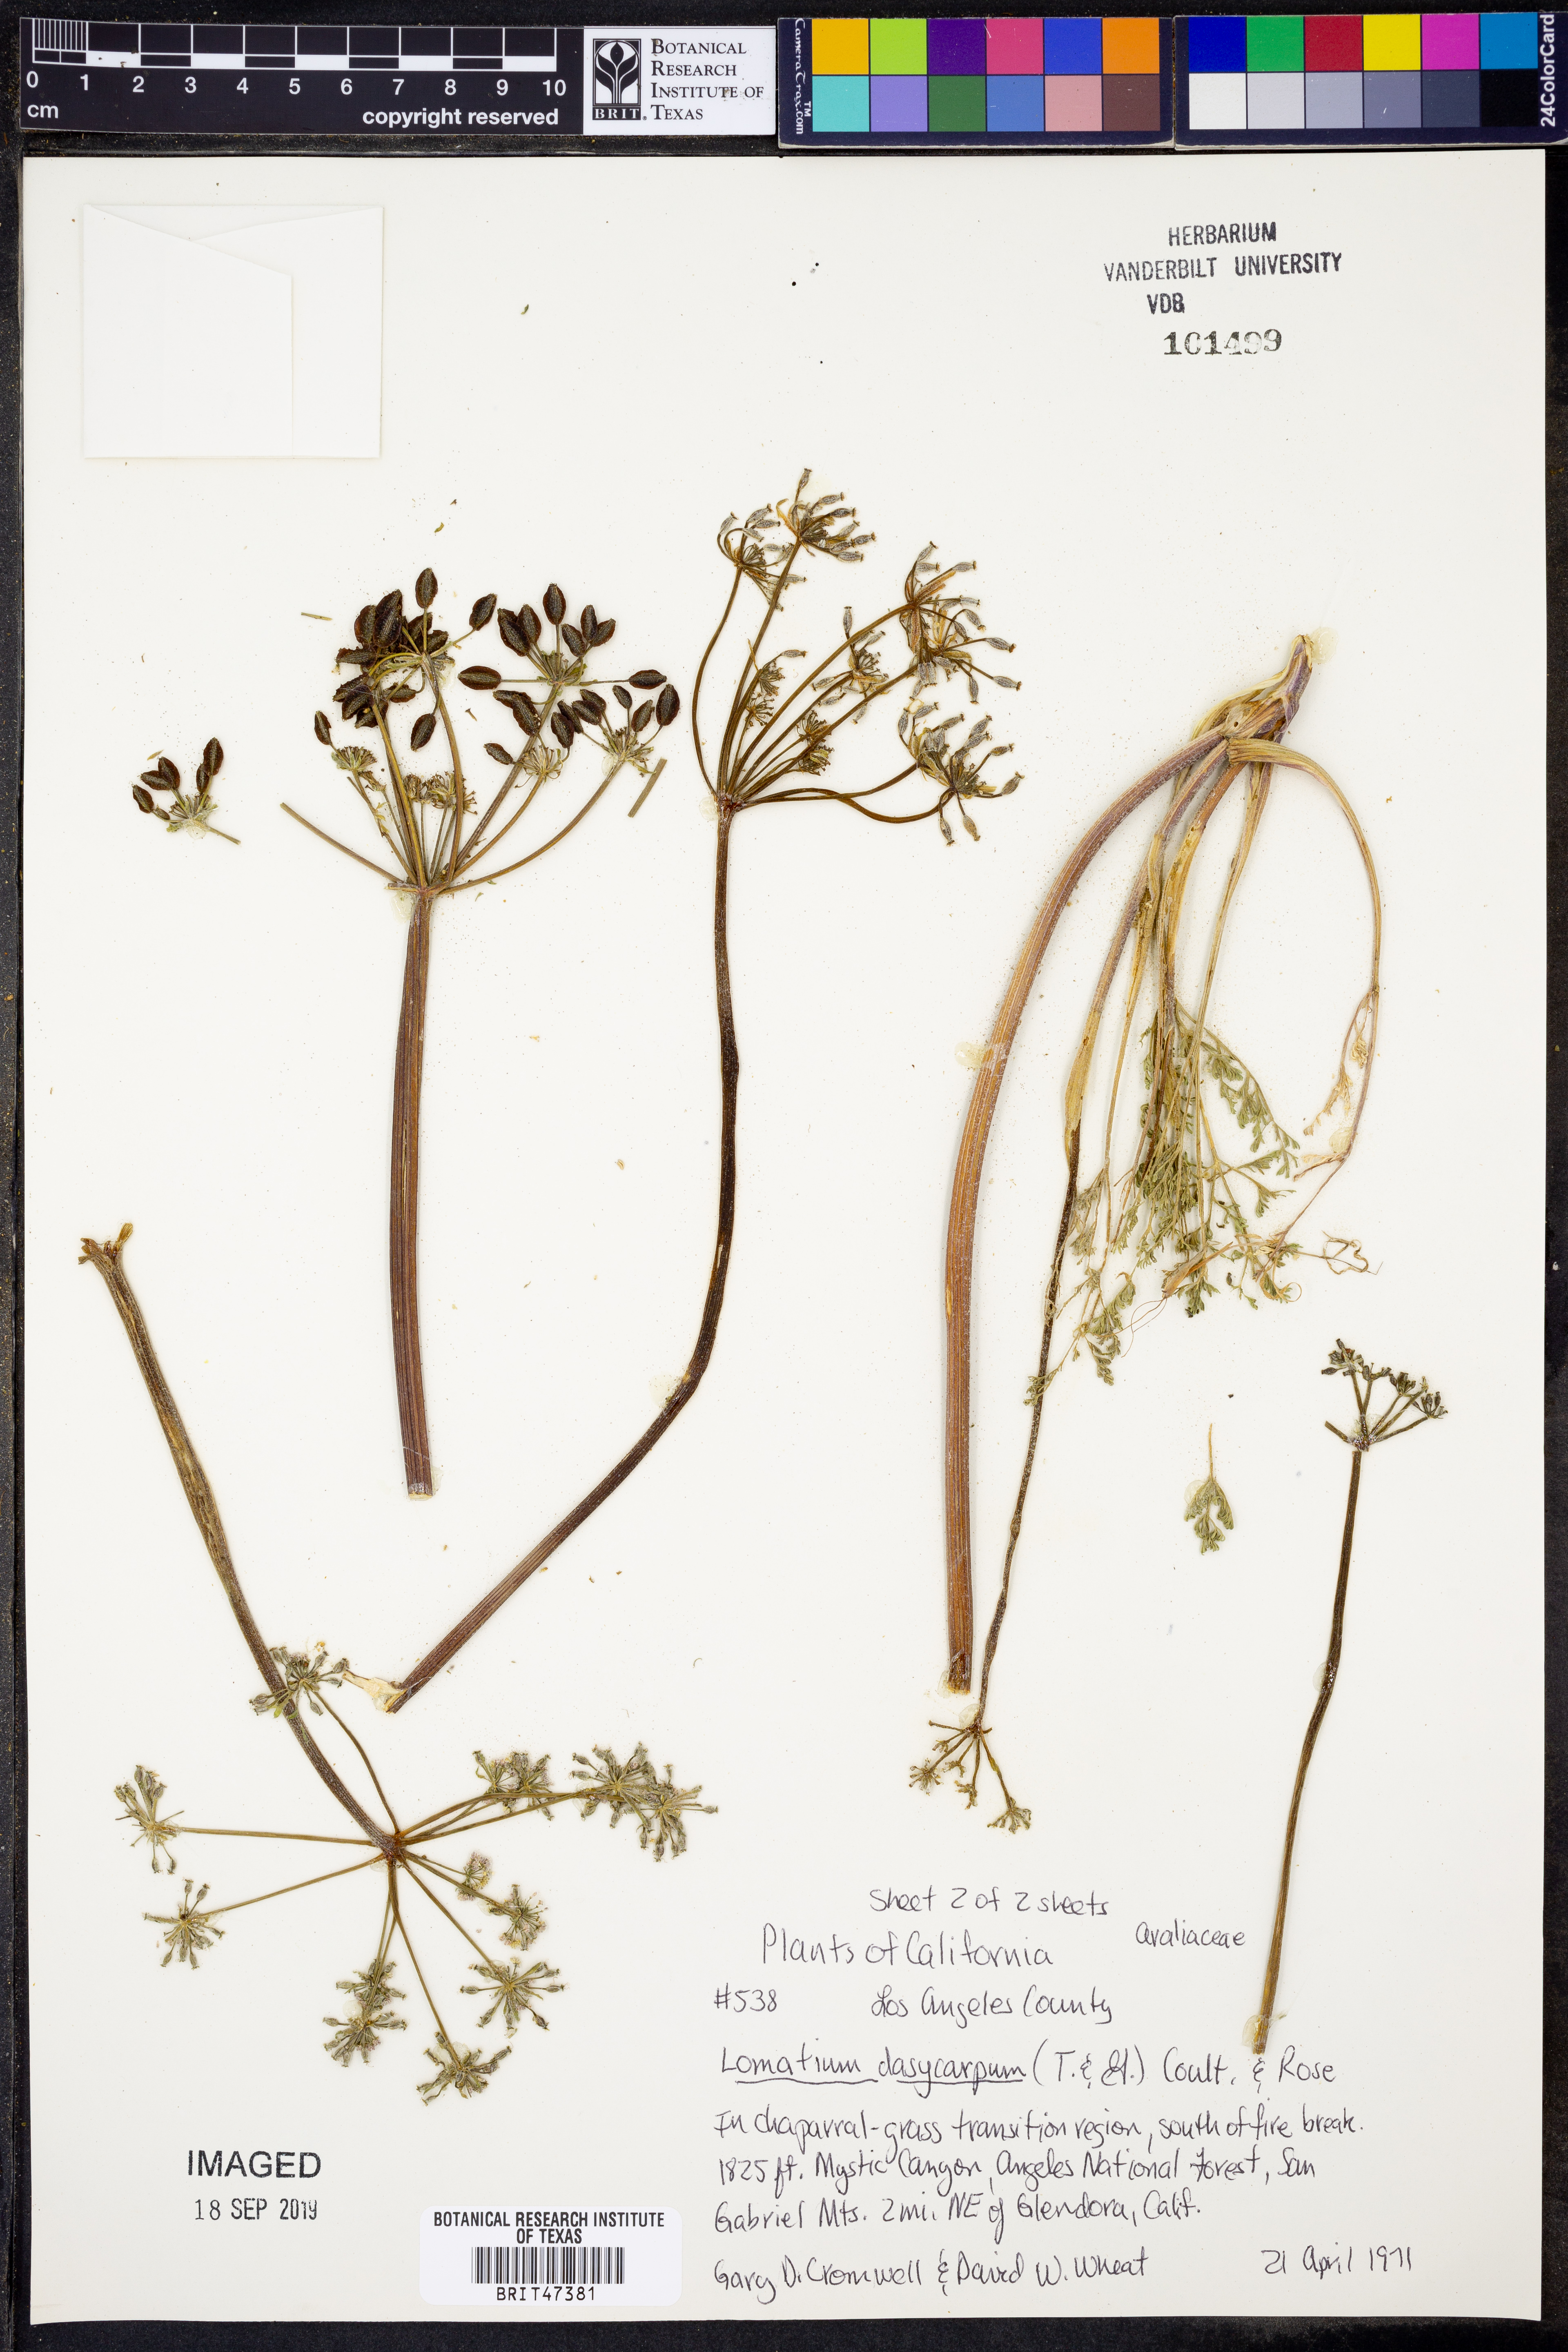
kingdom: Plantae
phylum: Tracheophyta
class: Magnoliopsida
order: Apiales
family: Apiaceae
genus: Lomatium
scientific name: Lomatium dasycarpum
